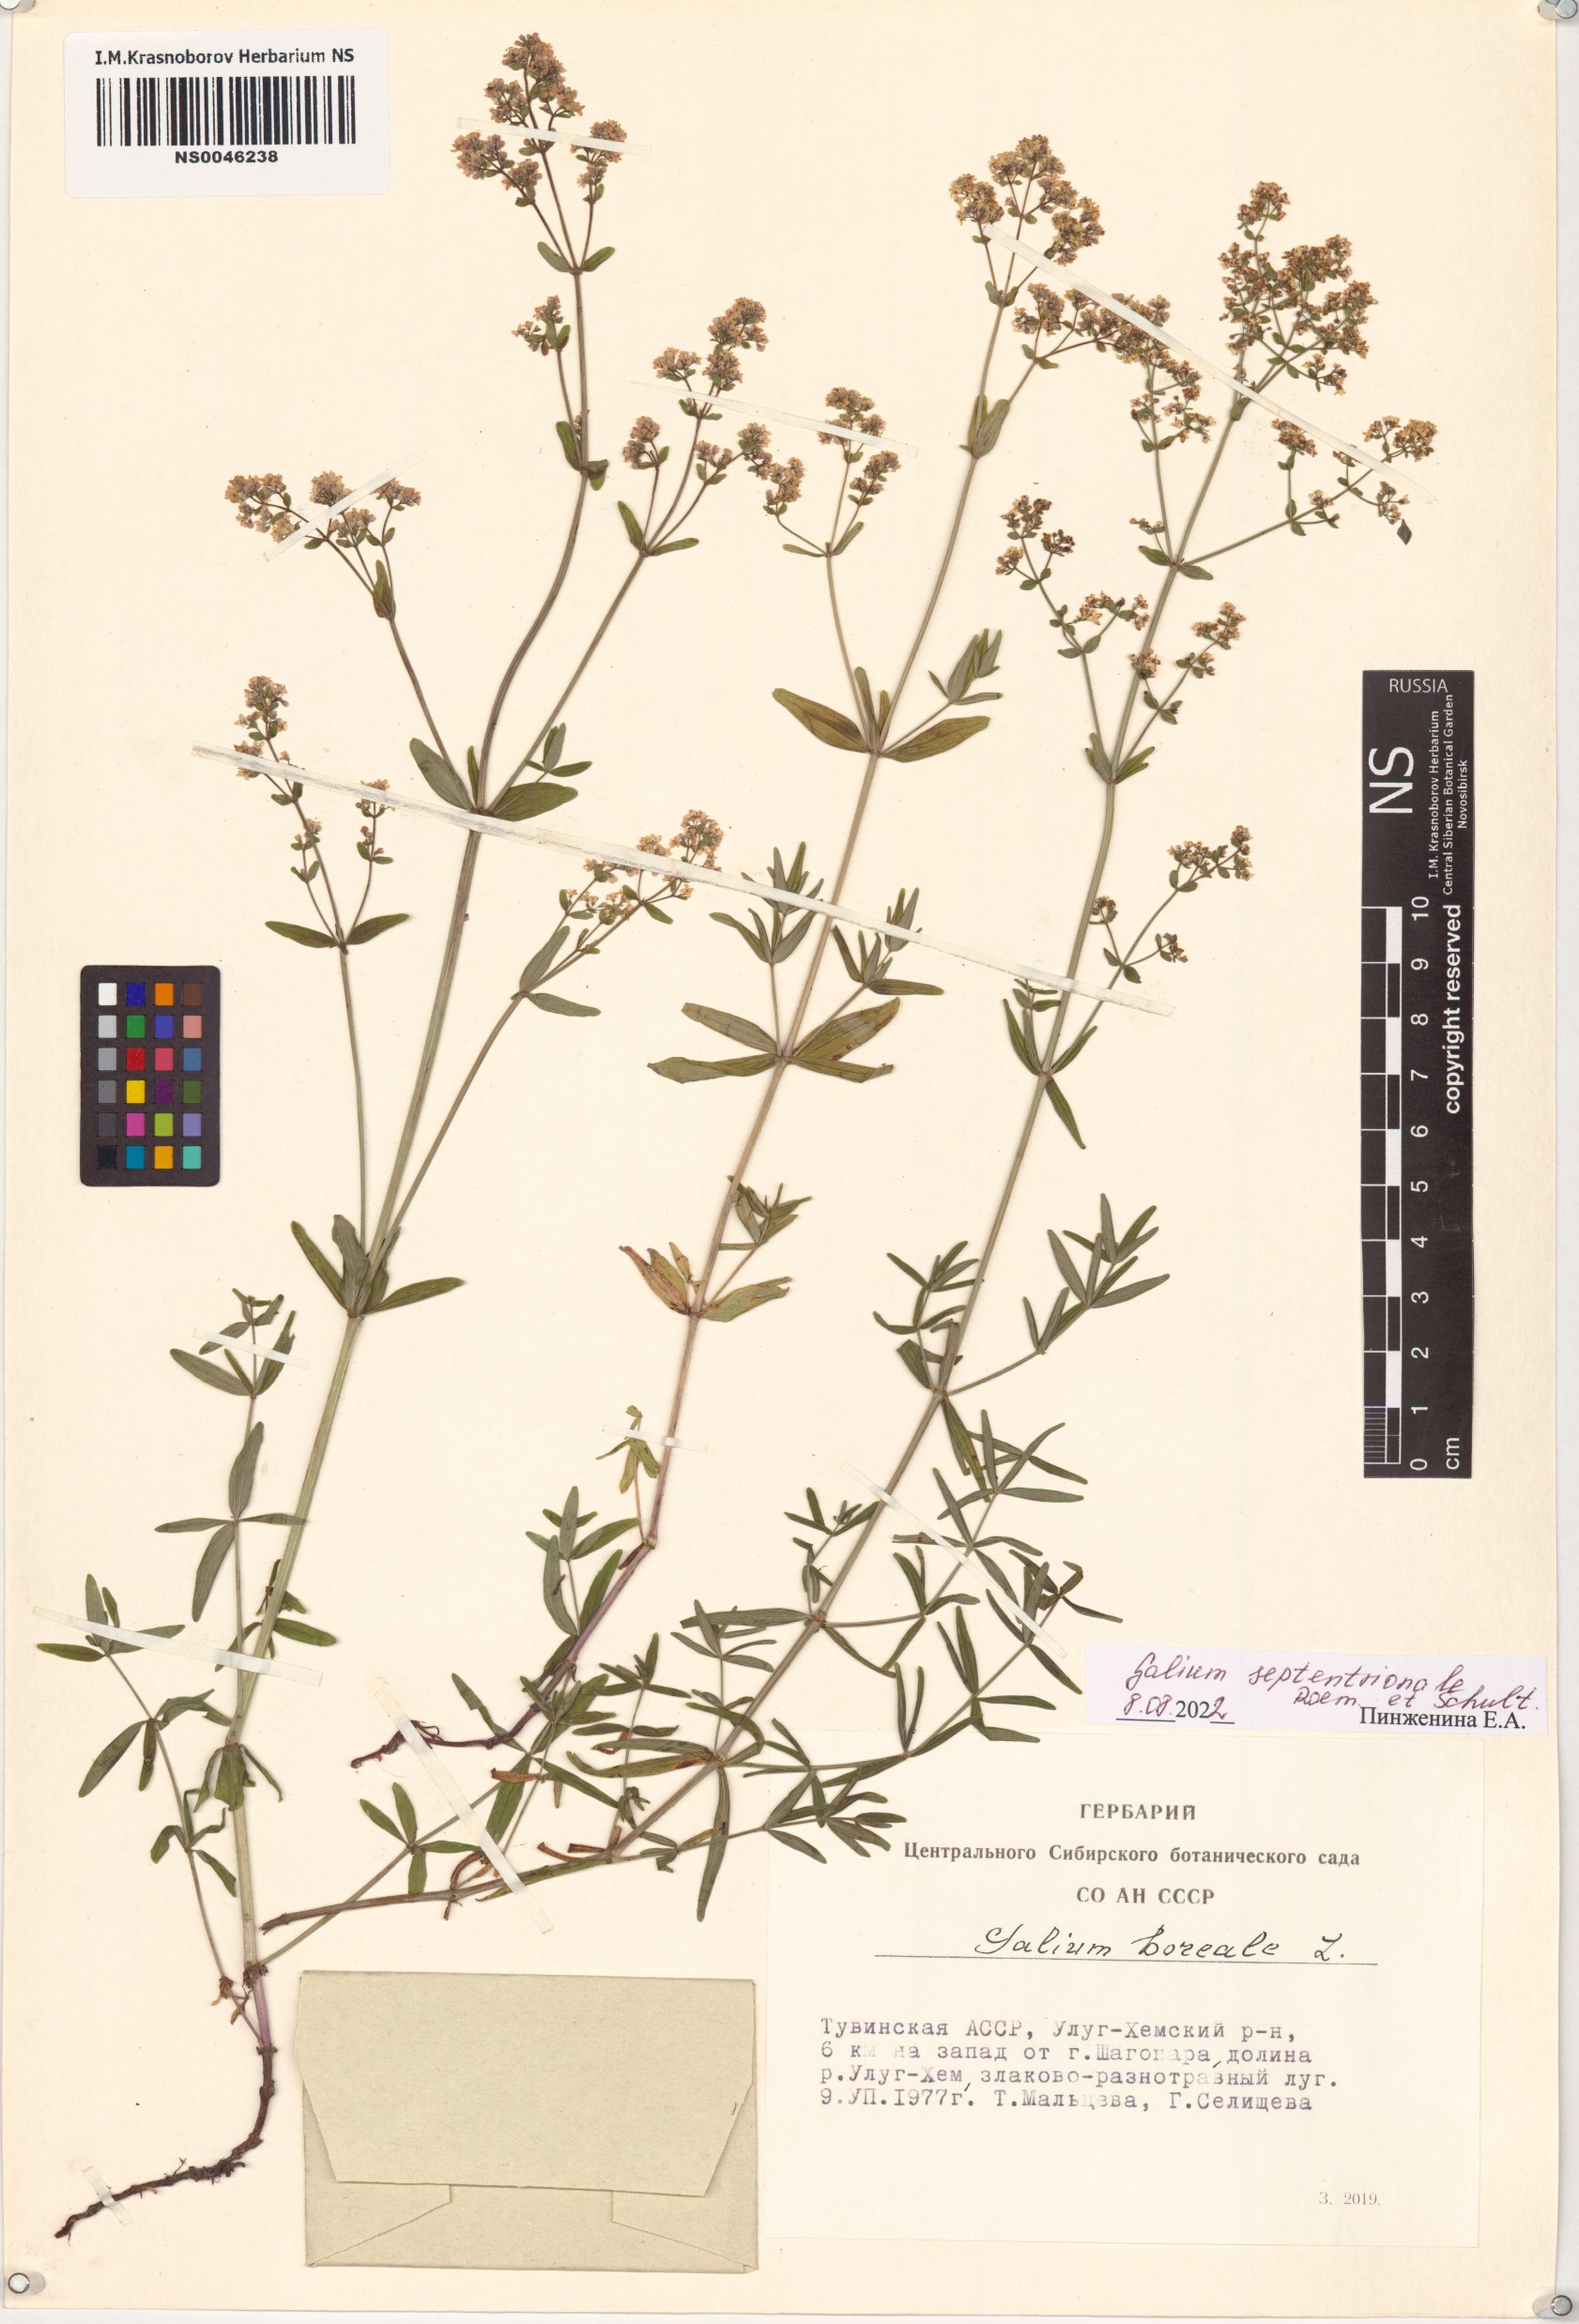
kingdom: Plantae
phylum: Tracheophyta
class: Magnoliopsida
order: Gentianales
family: Rubiaceae
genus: Galium
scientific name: Galium boreale
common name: Northern bedstraw
